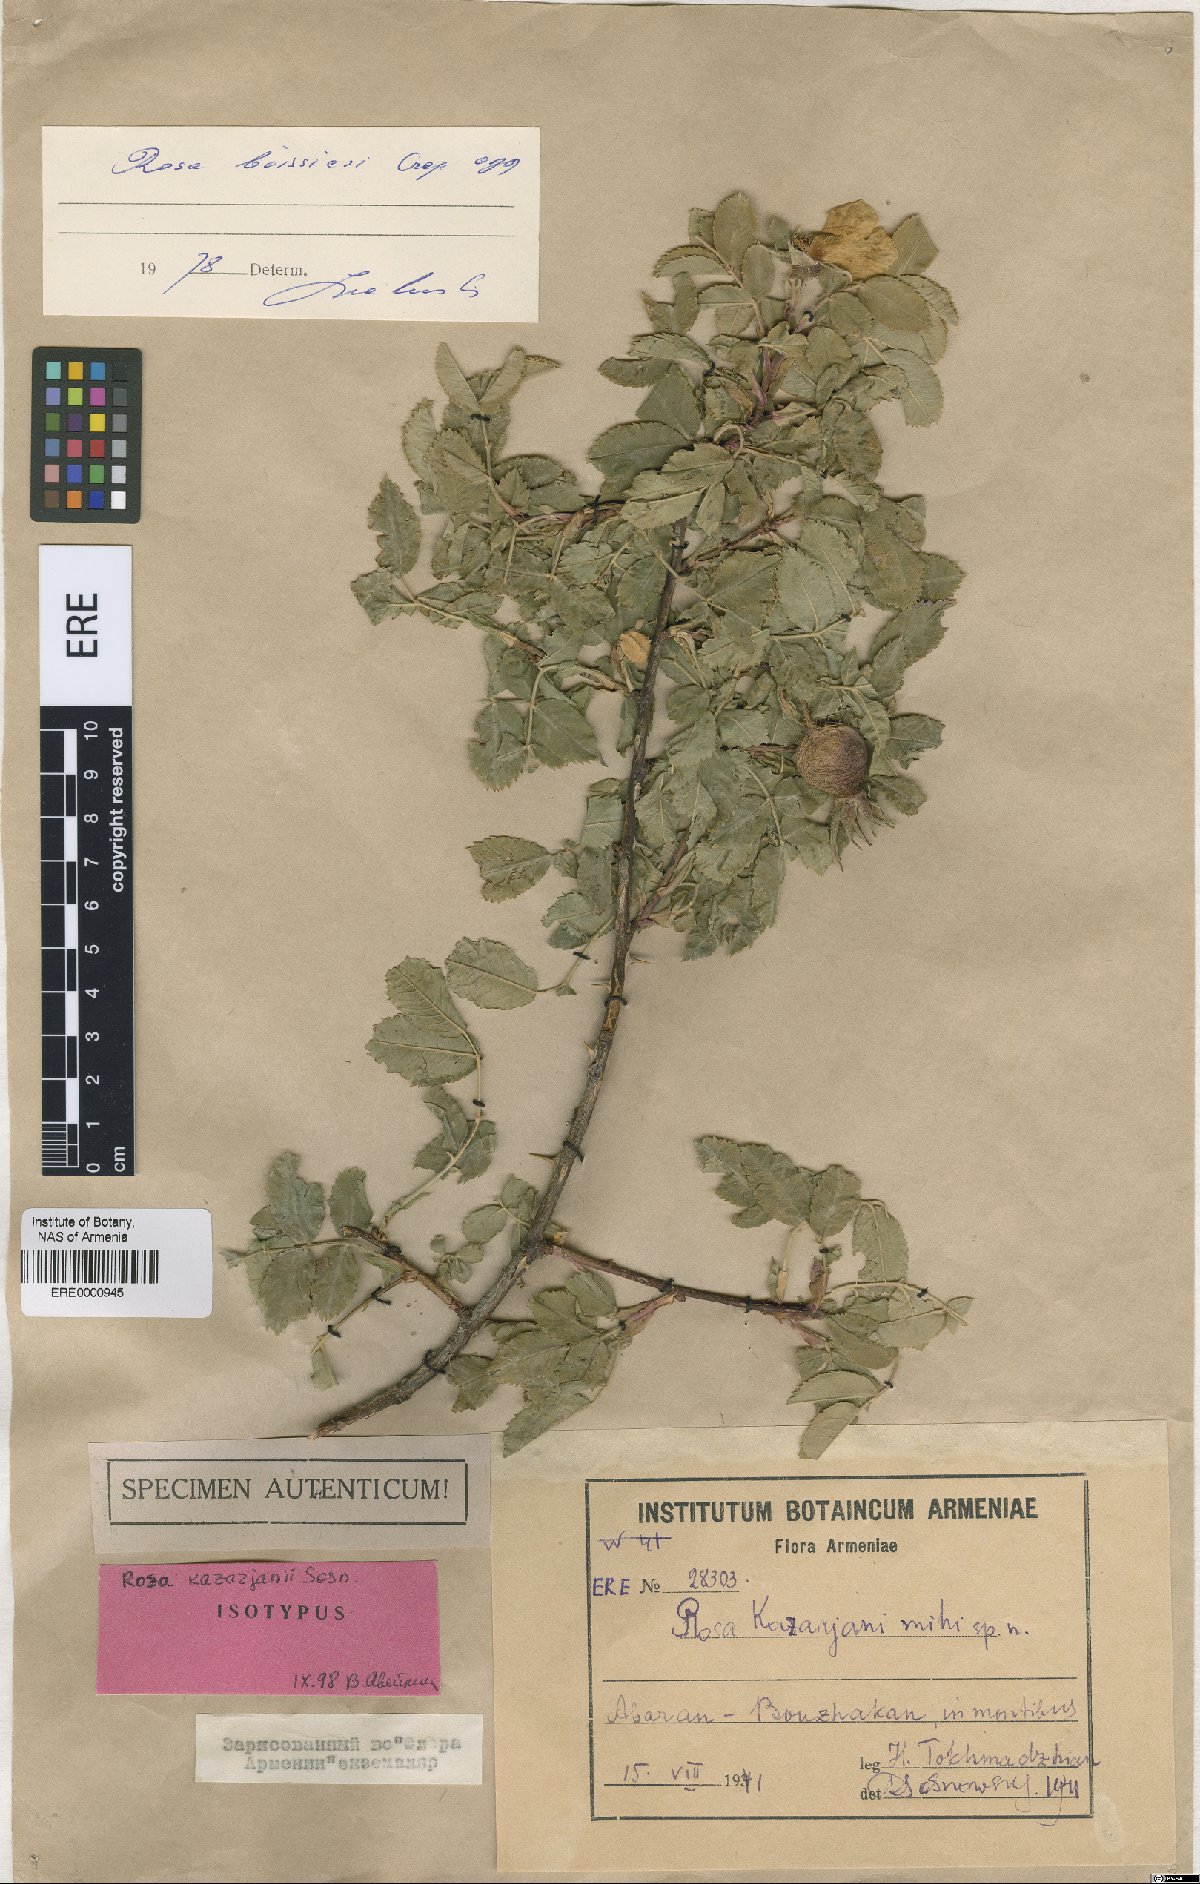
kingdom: Plantae
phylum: Tracheophyta
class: Magnoliopsida
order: Rosales
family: Rosaceae
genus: Rosa
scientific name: Rosa kazarjanii
